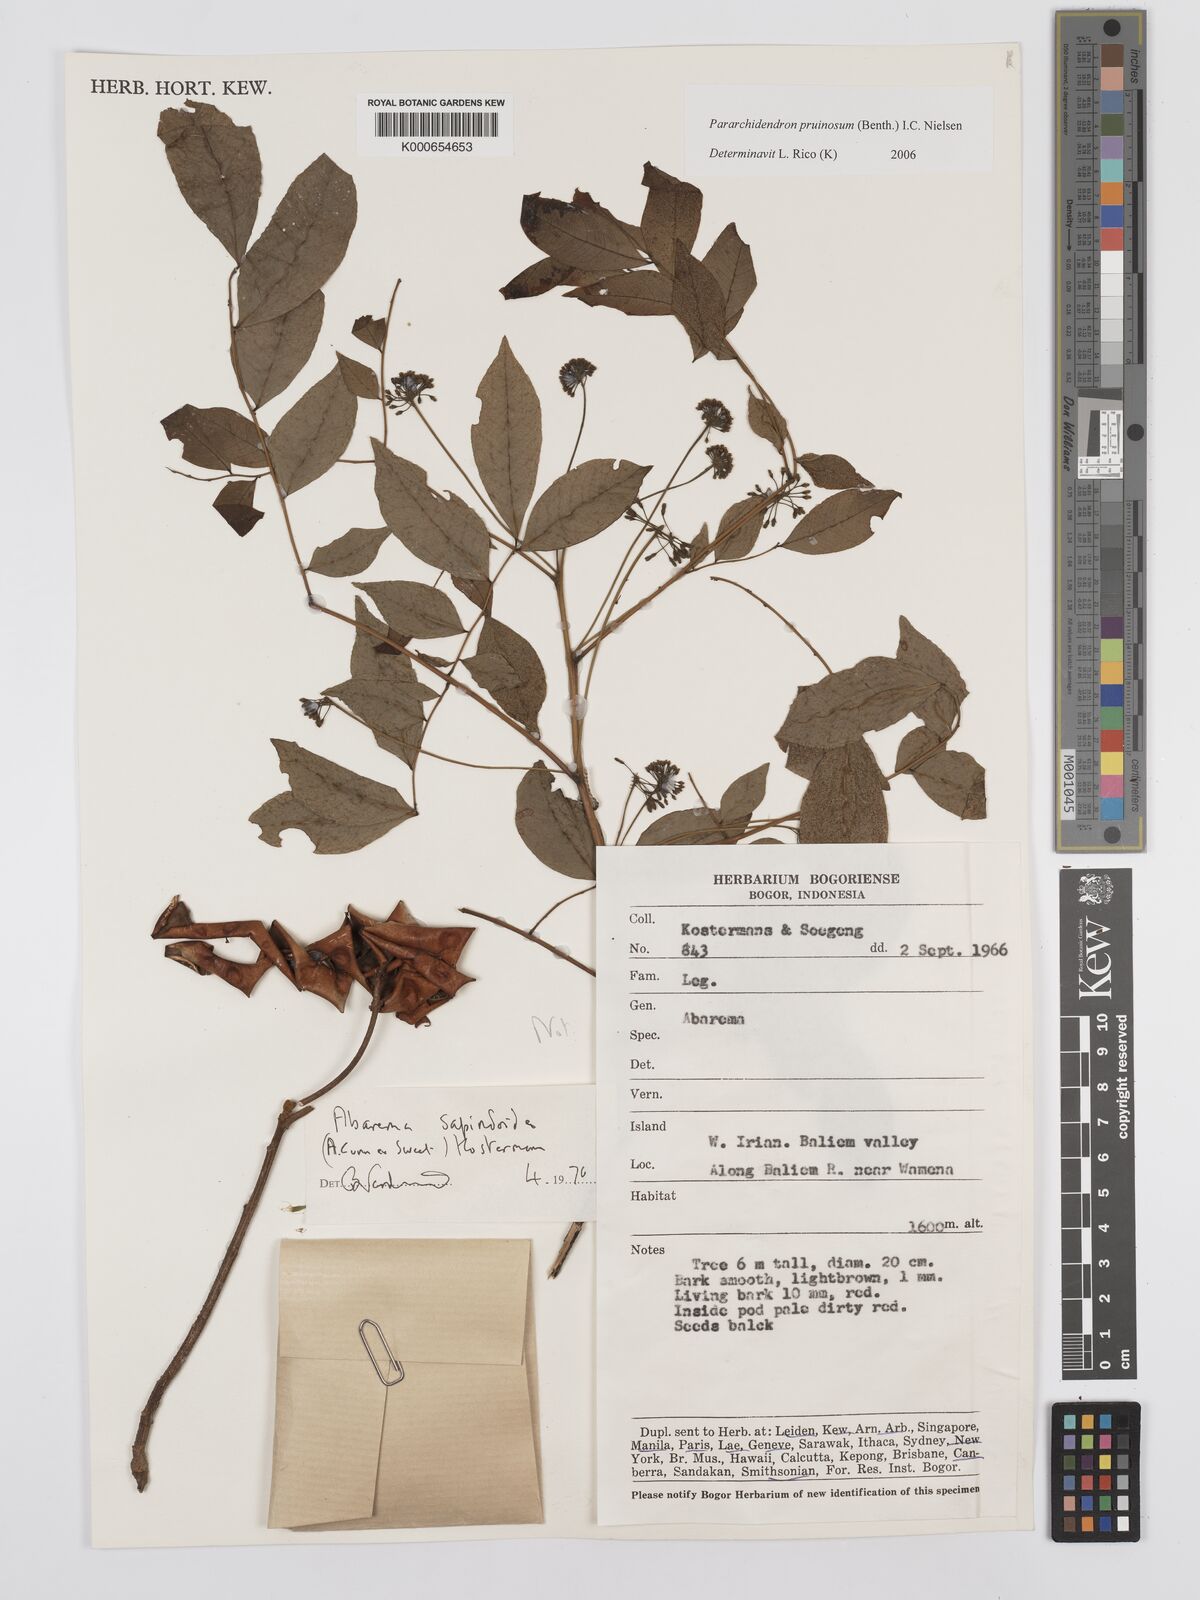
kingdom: Plantae
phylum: Tracheophyta
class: Magnoliopsida
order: Fabales
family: Fabaceae
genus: Pararchidendron
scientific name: Pararchidendron pruinosum
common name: Tulip siris
